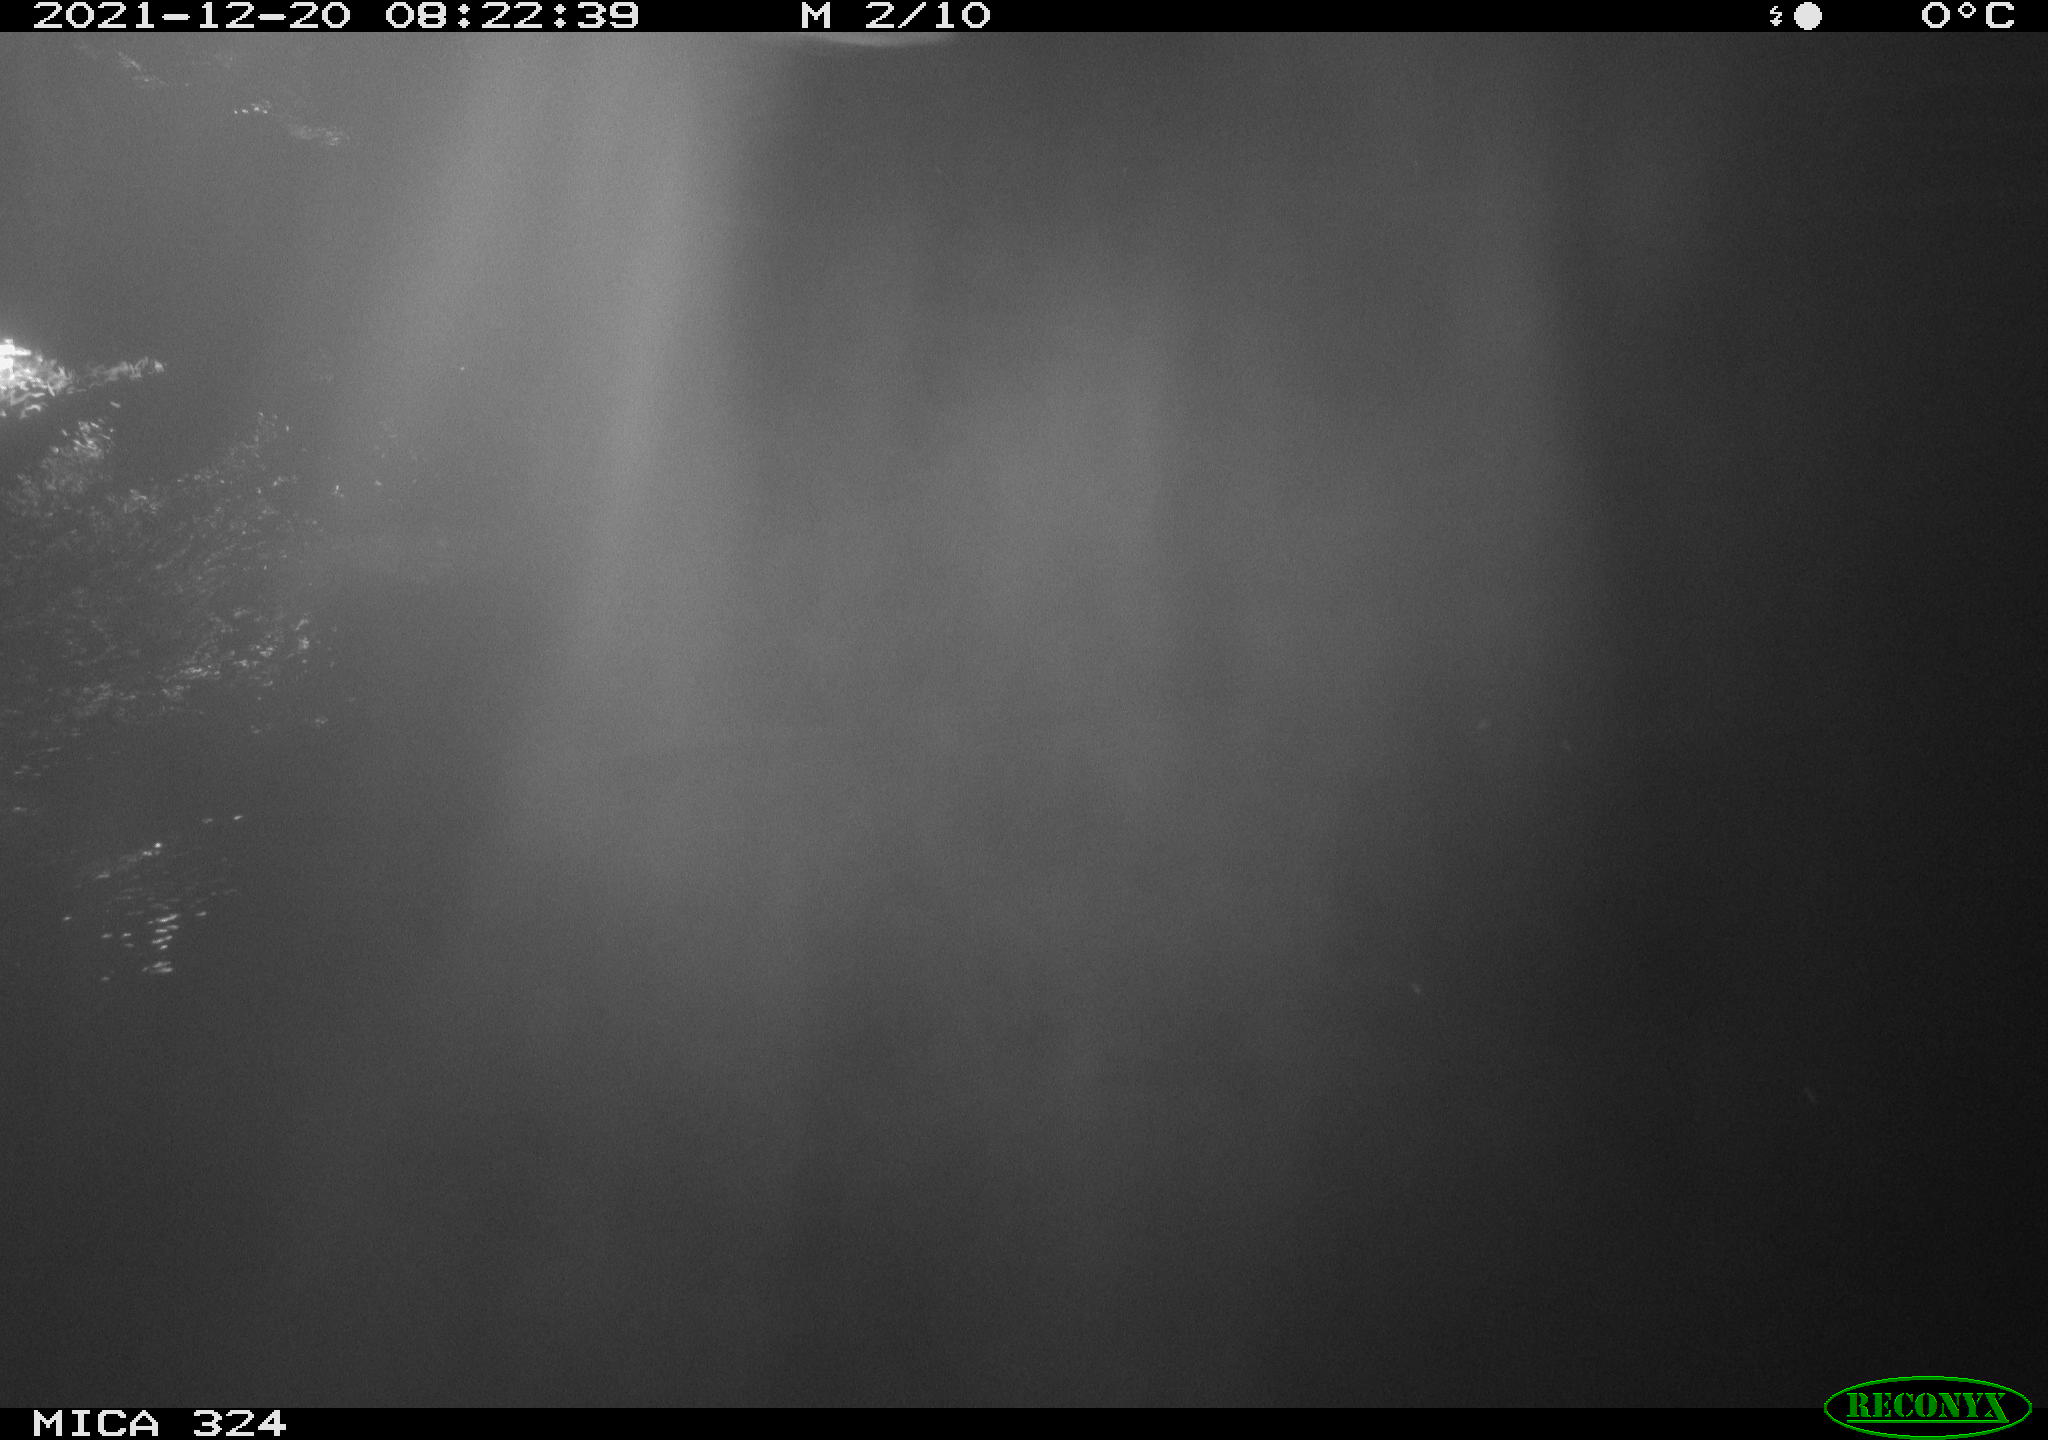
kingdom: Animalia
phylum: Chordata
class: Aves
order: Anseriformes
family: Anatidae
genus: Anas
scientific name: Anas platyrhynchos
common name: Mallard
